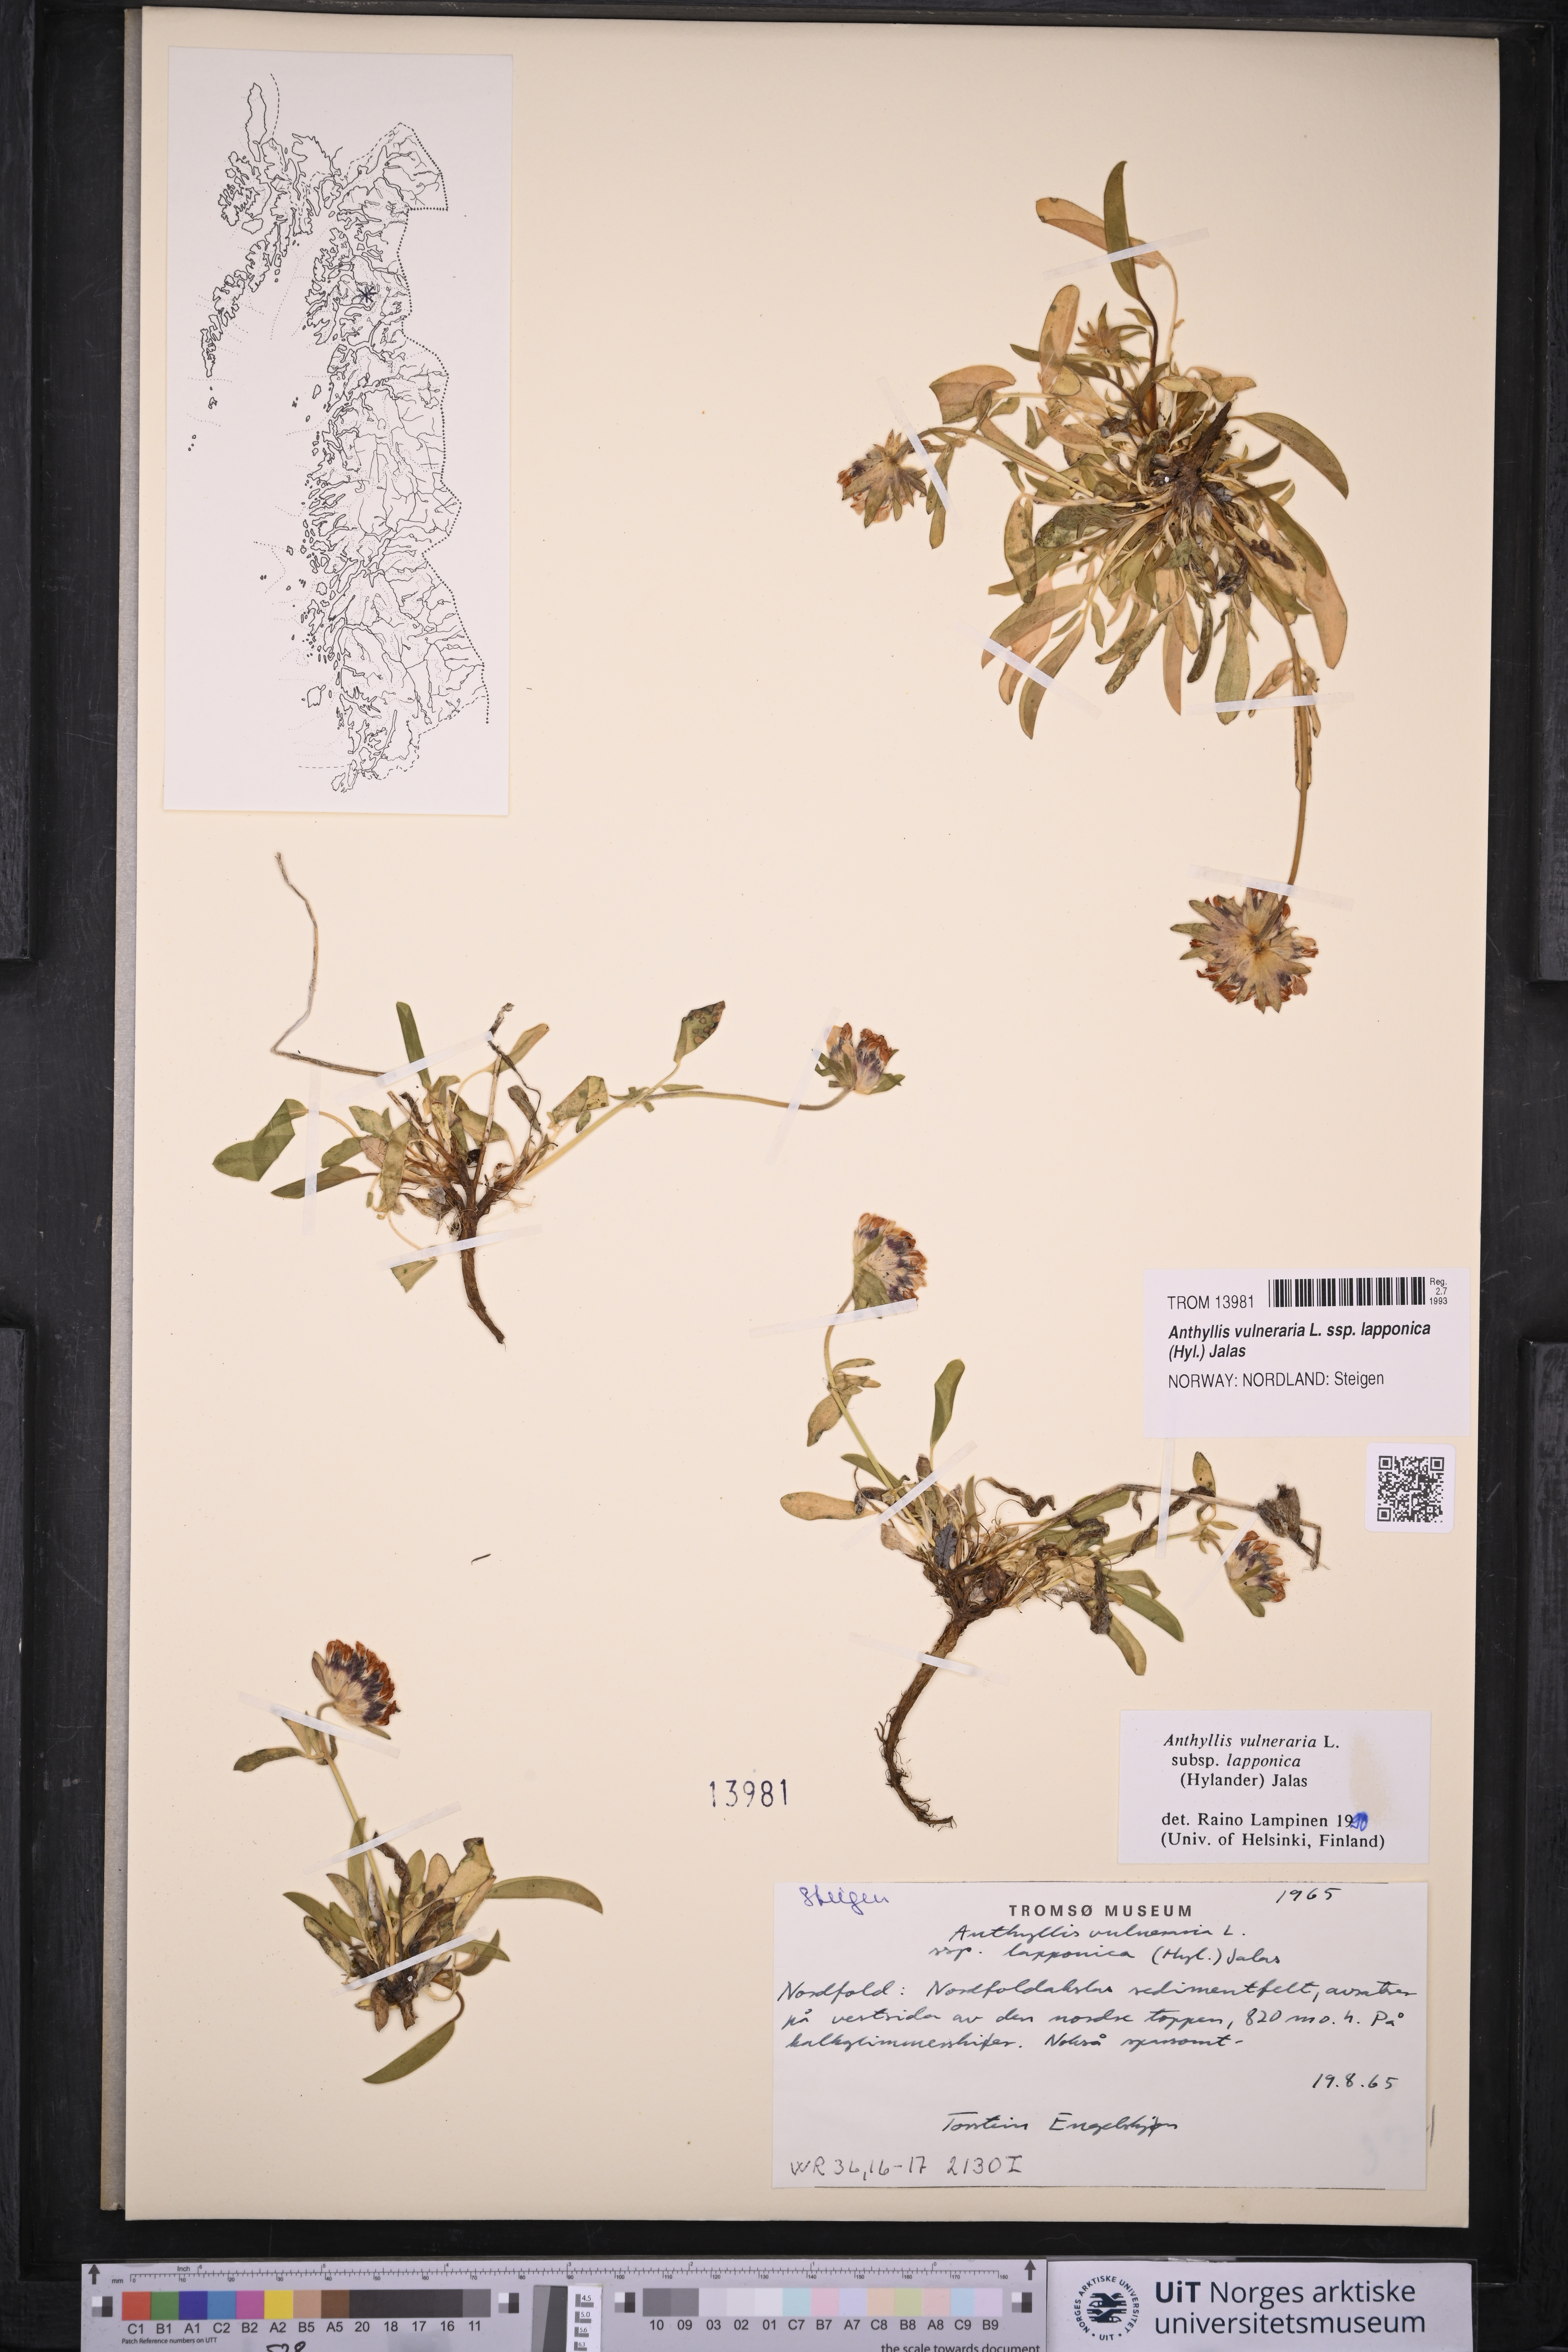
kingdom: Plantae
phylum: Tracheophyta
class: Magnoliopsida
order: Fabales
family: Fabaceae
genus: Anthyllis
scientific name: Anthyllis vulneraria
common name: Kidney vetch
